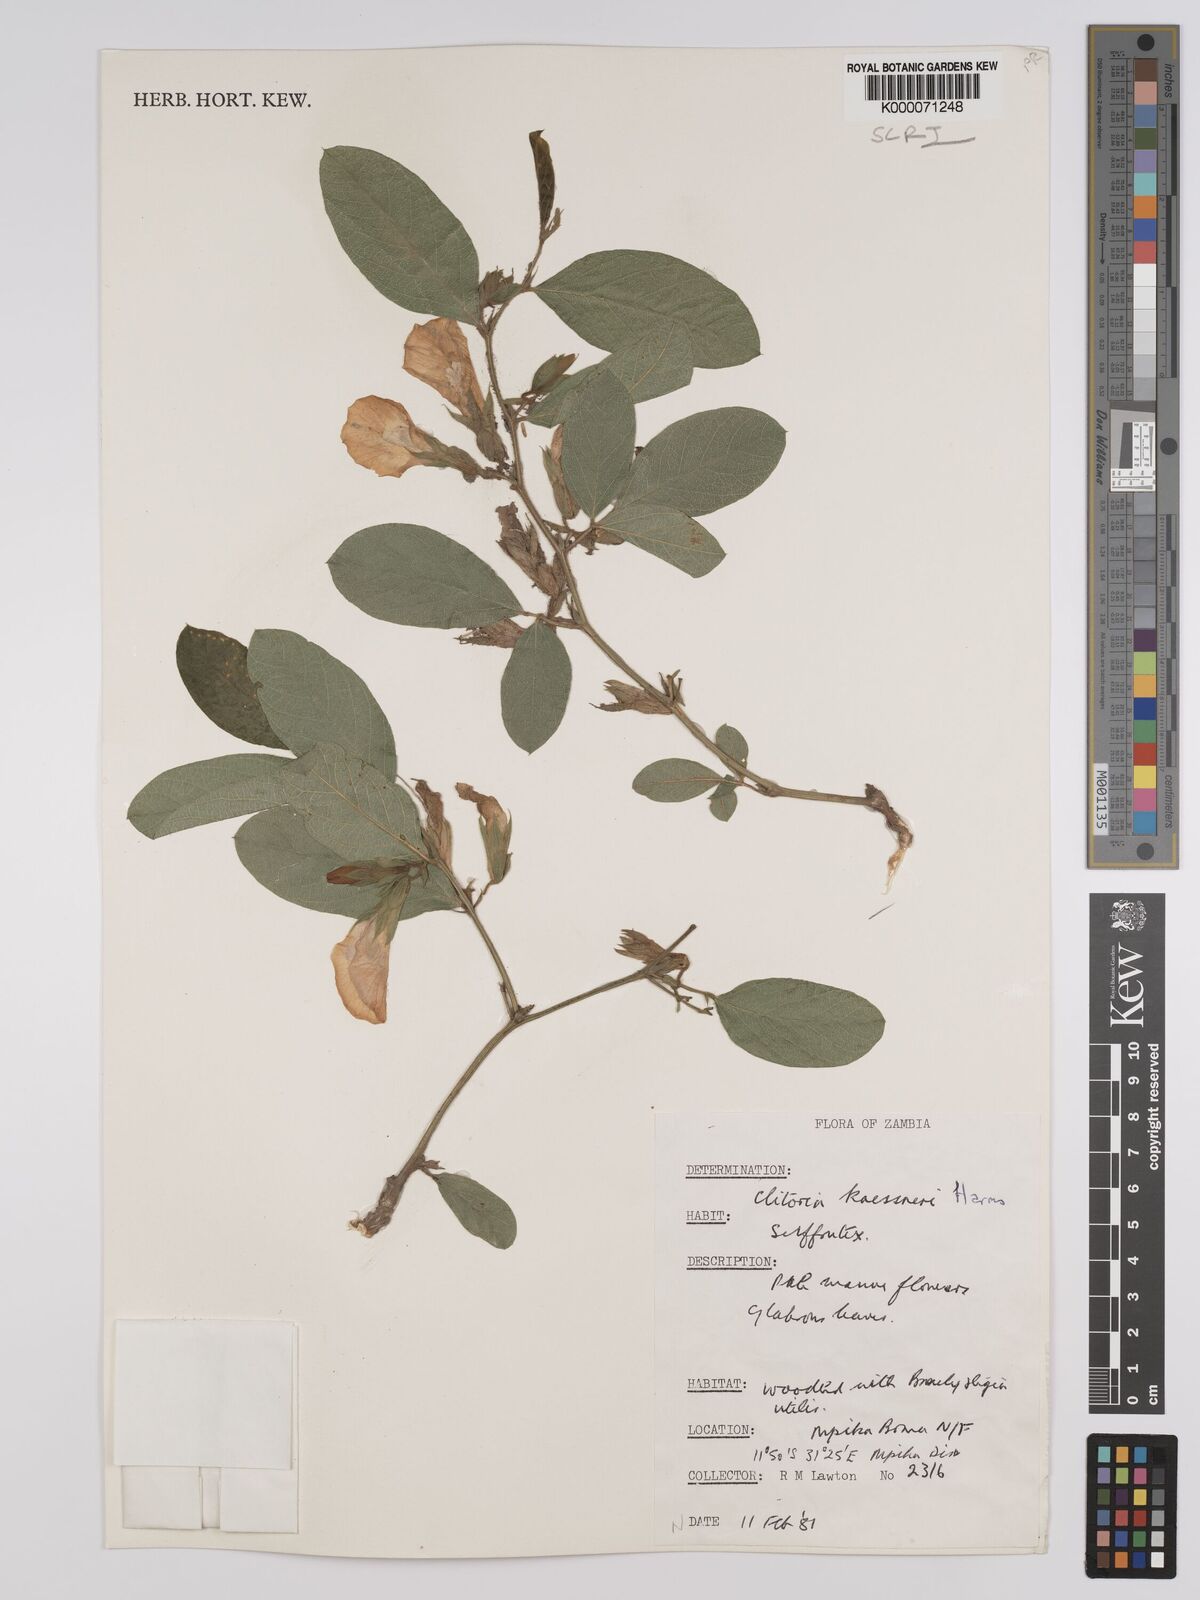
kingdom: Plantae
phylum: Tracheophyta
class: Magnoliopsida
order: Fabales
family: Fabaceae
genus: Clitoria
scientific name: Clitoria kaessneri
